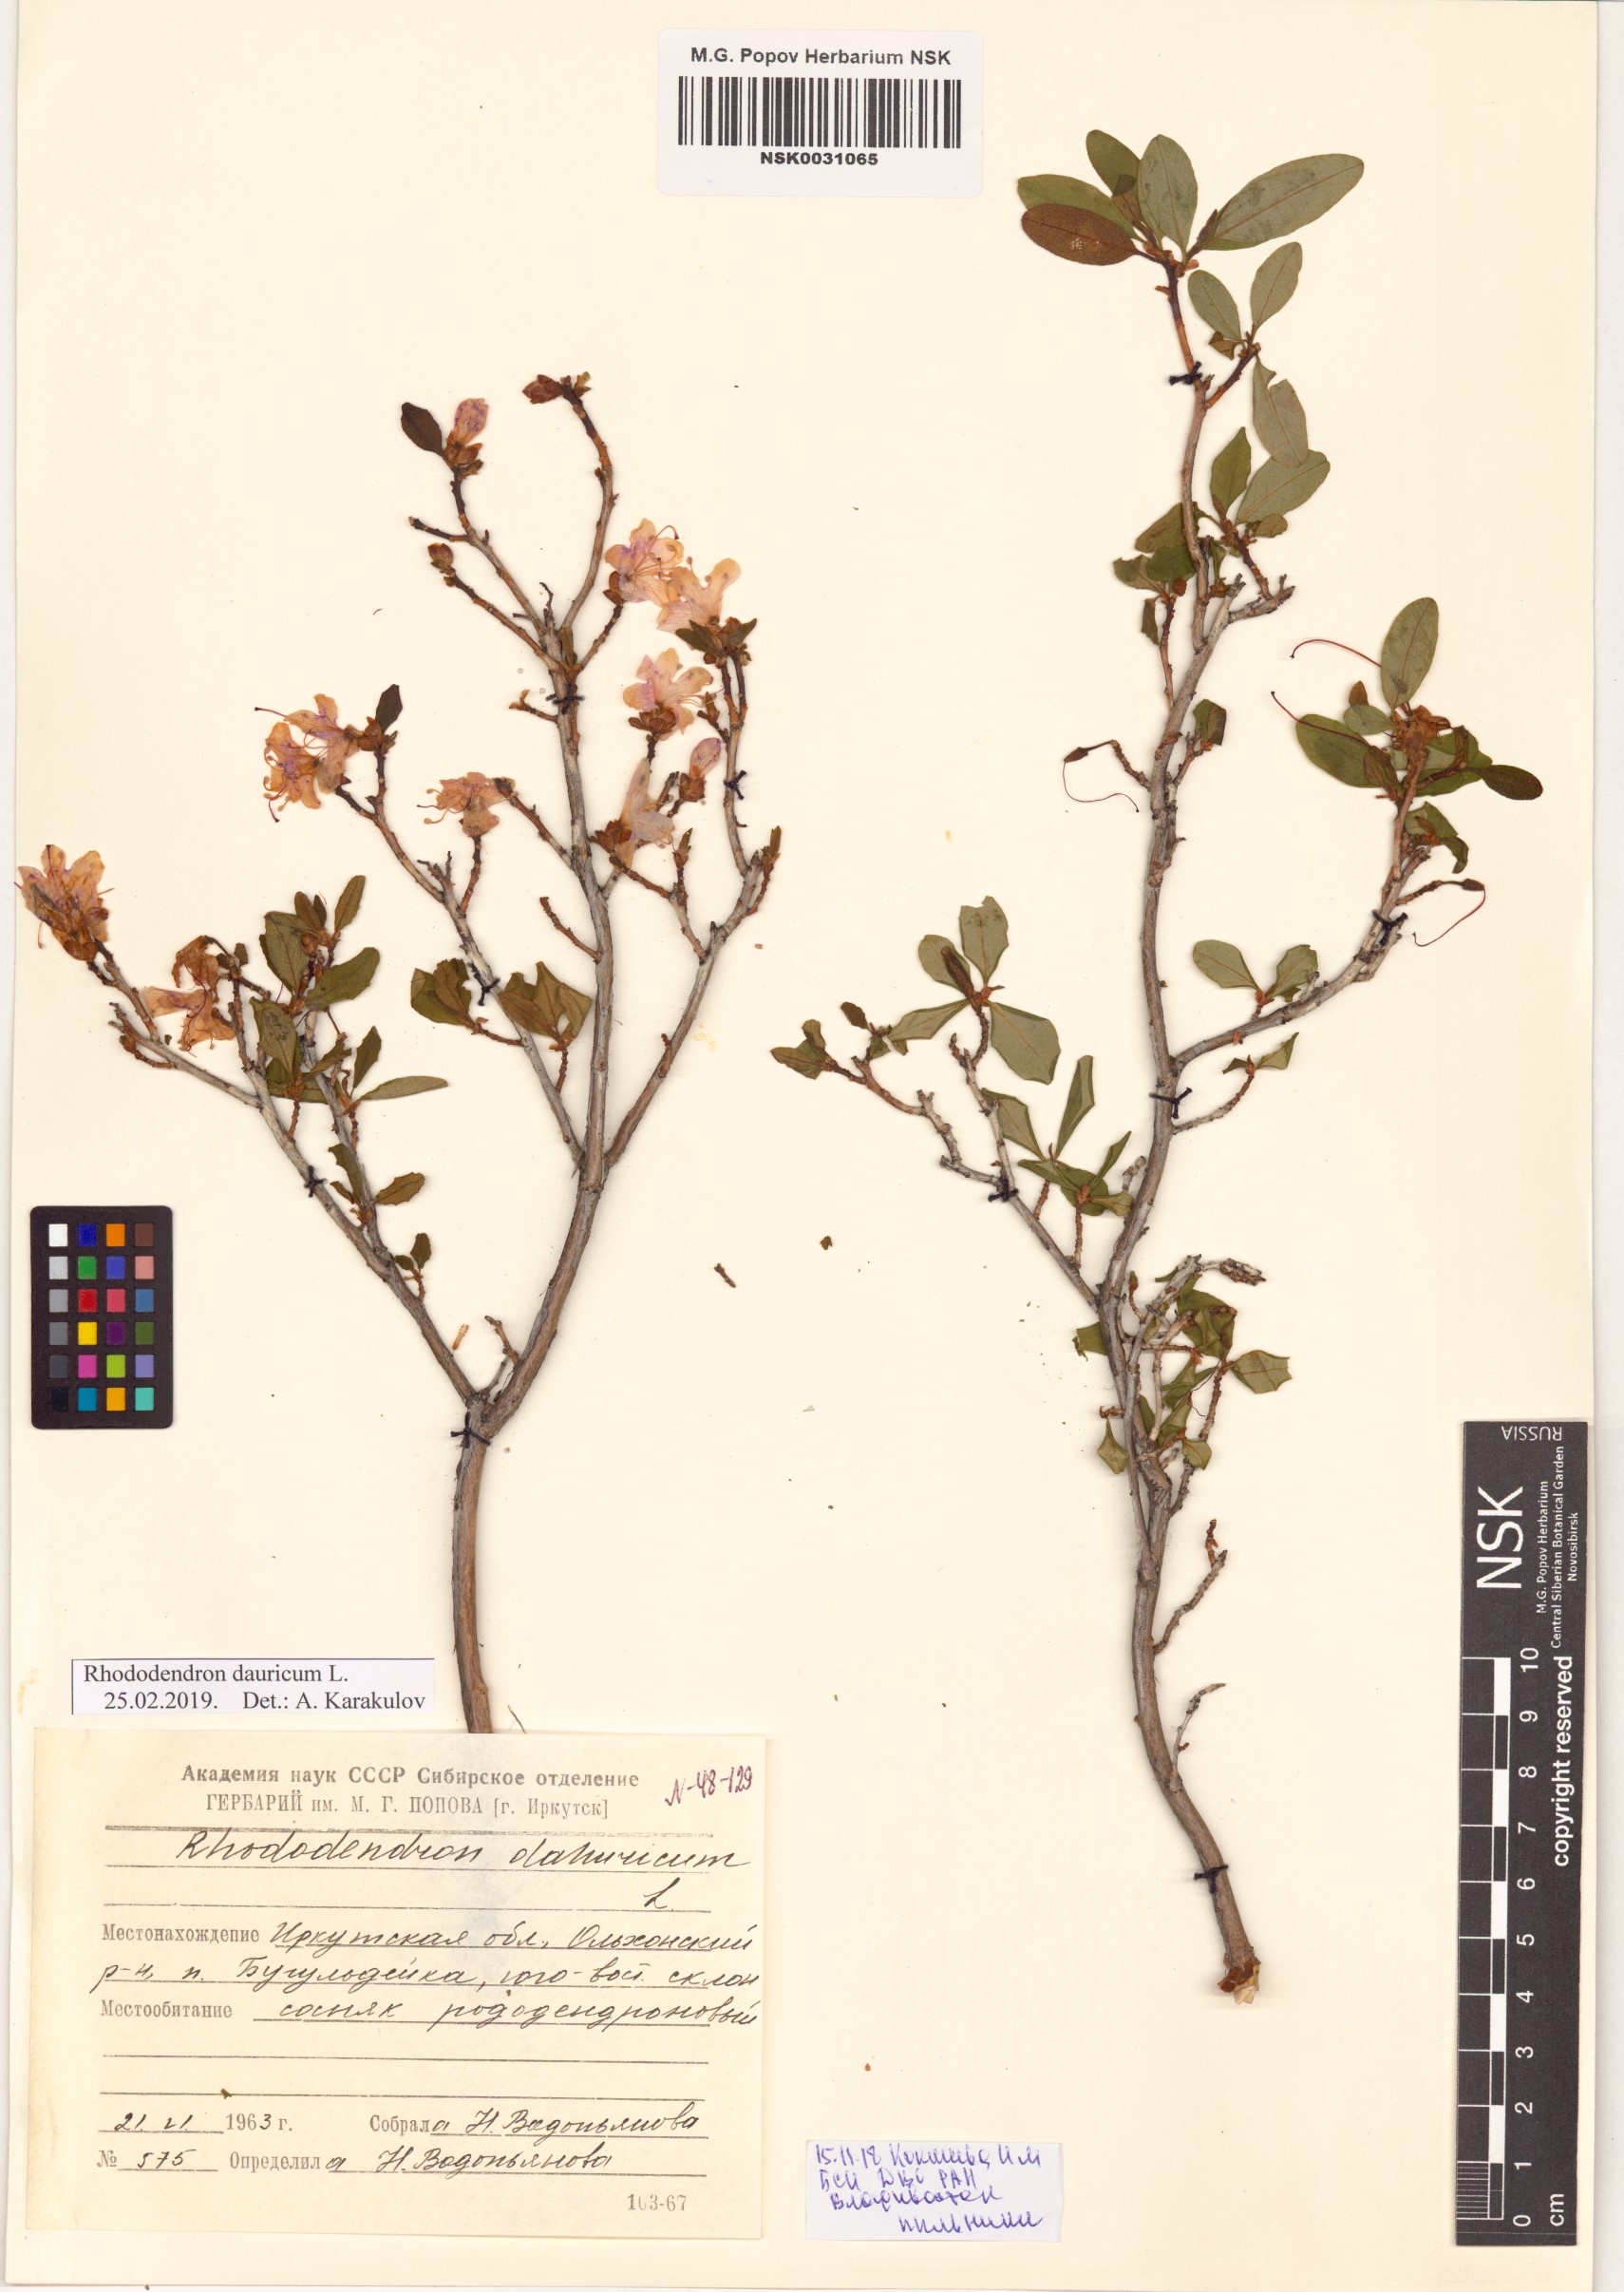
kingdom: Plantae
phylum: Tracheophyta
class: Magnoliopsida
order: Ericales
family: Ericaceae
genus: Rhododendron
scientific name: Rhododendron dauricum
